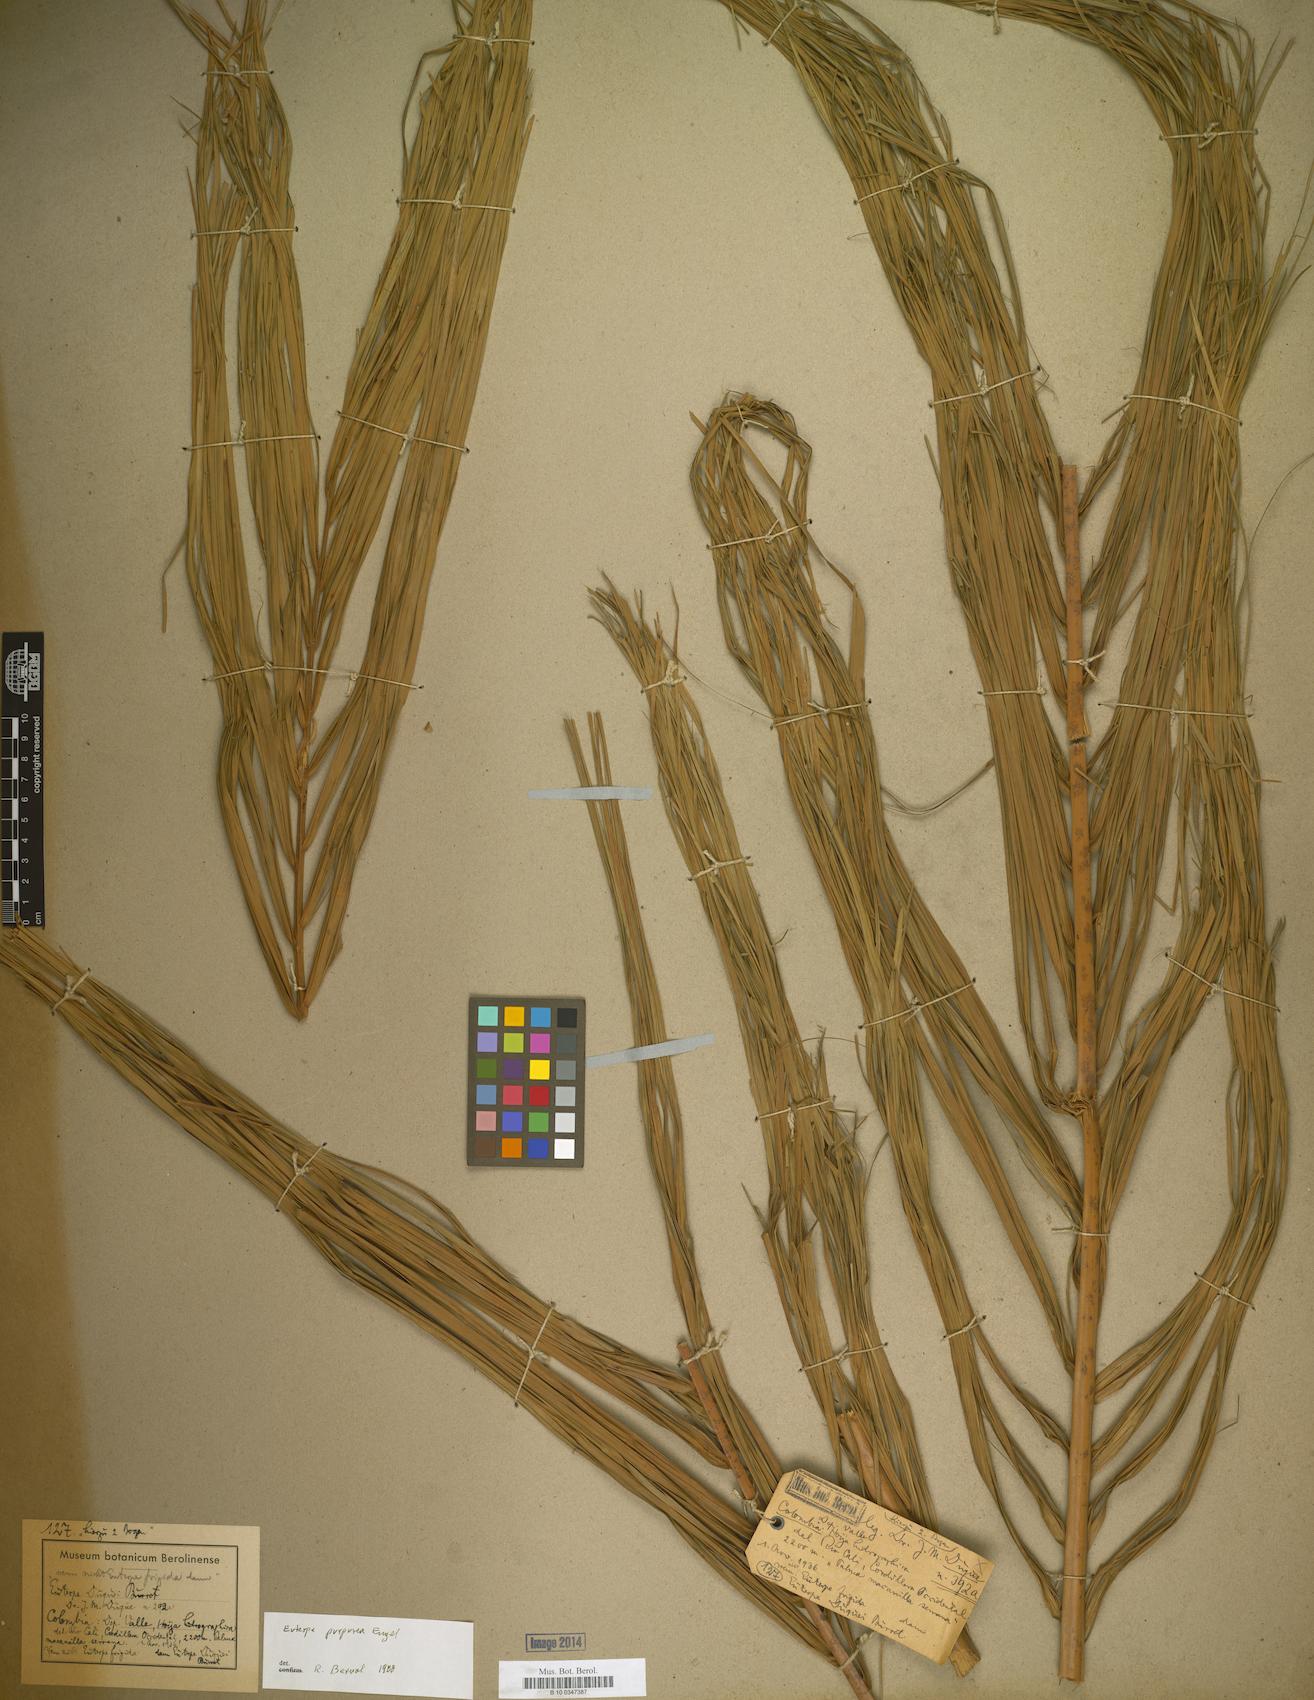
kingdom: Plantae
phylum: Tracheophyta
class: Liliopsida
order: Arecales
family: Arecaceae
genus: Euterpe
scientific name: Euterpe
